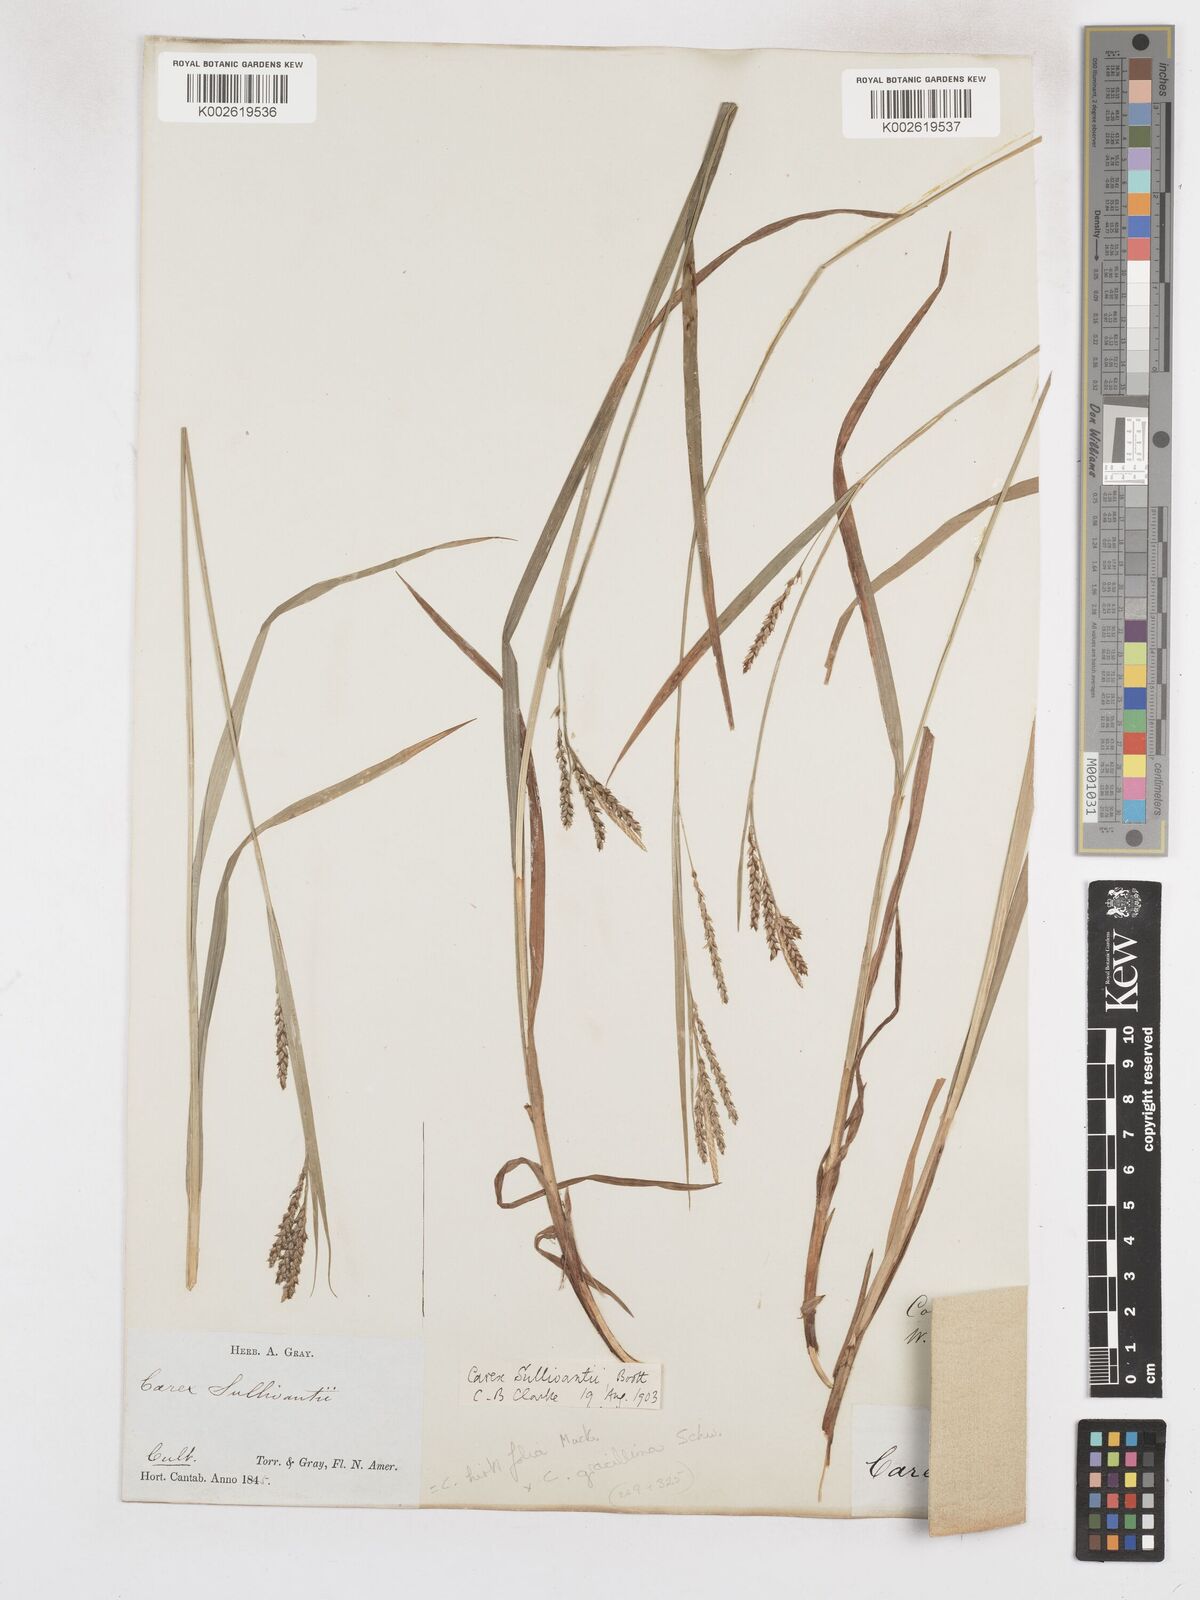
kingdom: Plantae
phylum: Tracheophyta
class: Liliopsida
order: Poales
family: Cyperaceae
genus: Carex
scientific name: Carex gracillima
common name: Graceful sedge
